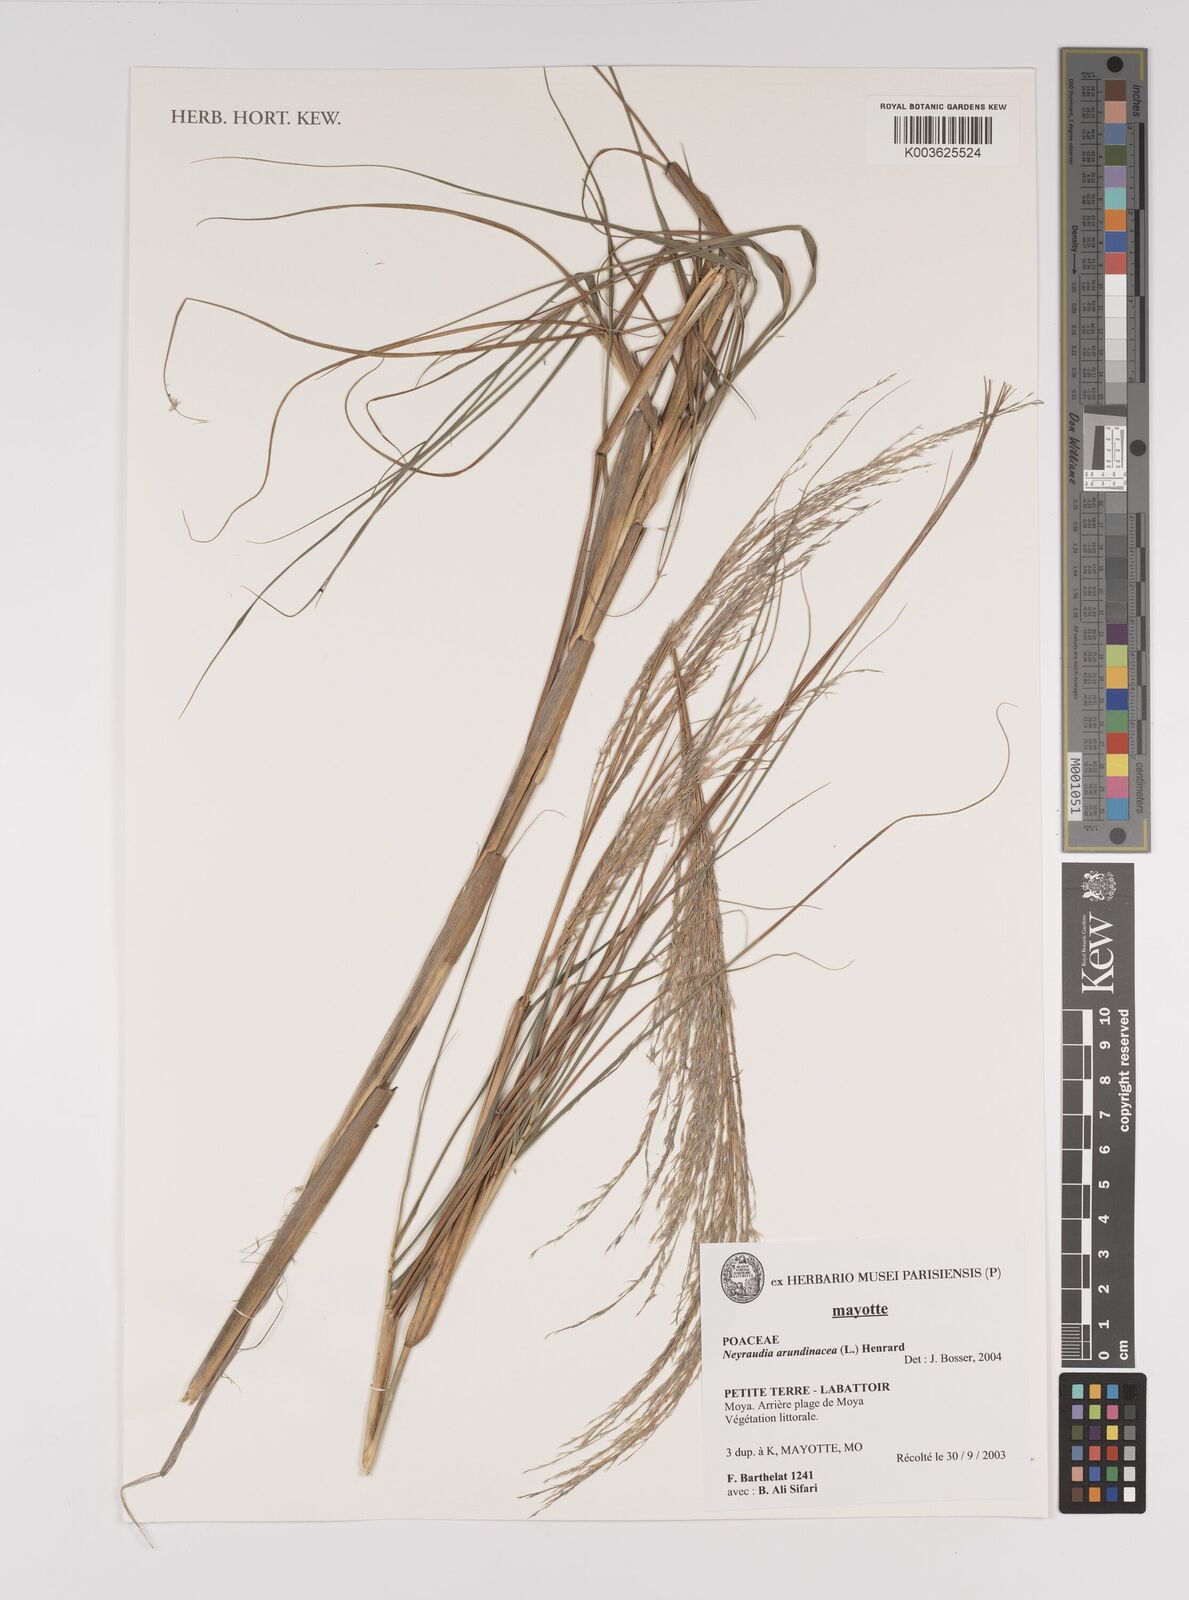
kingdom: Plantae
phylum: Tracheophyta
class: Liliopsida
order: Poales
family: Poaceae
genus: Neyraudia
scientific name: Neyraudia arundinacea
